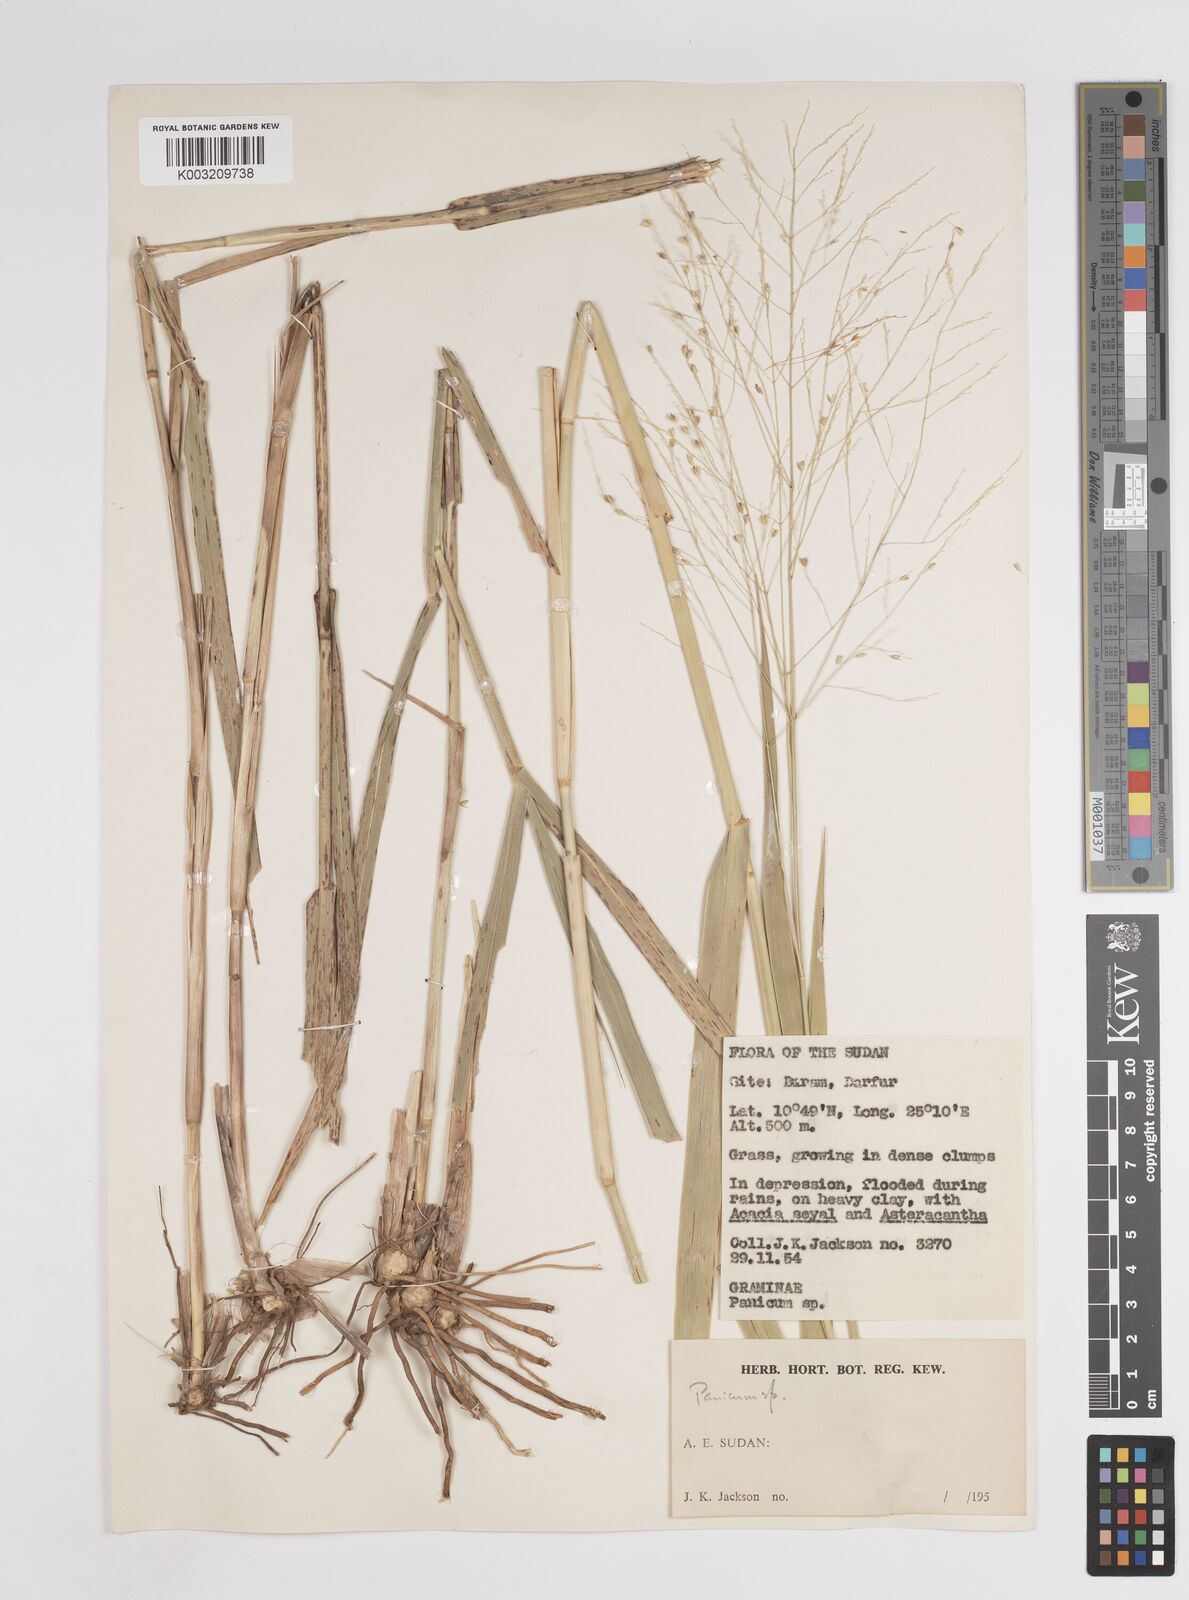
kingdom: Plantae
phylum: Tracheophyta
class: Liliopsida
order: Poales
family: Poaceae
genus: Panicum
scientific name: Panicum
